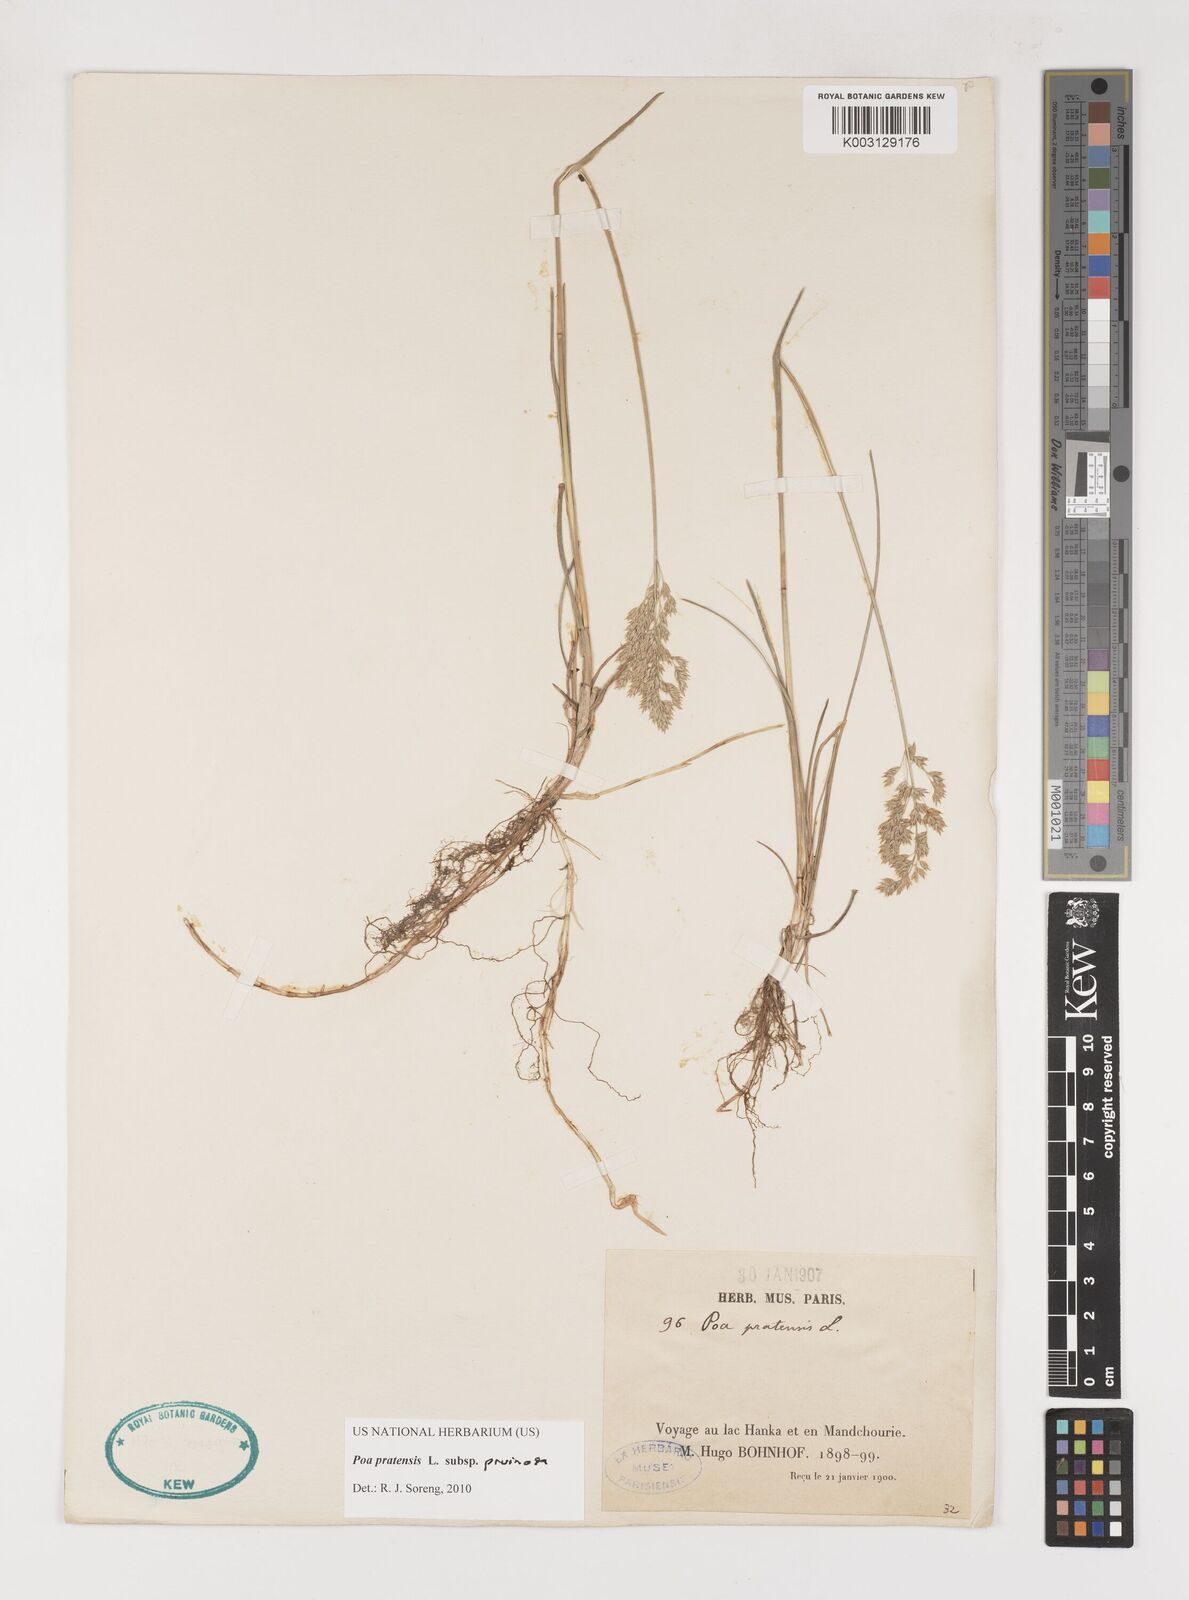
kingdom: Plantae
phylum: Tracheophyta
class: Liliopsida
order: Poales
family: Poaceae
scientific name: Poaceae
